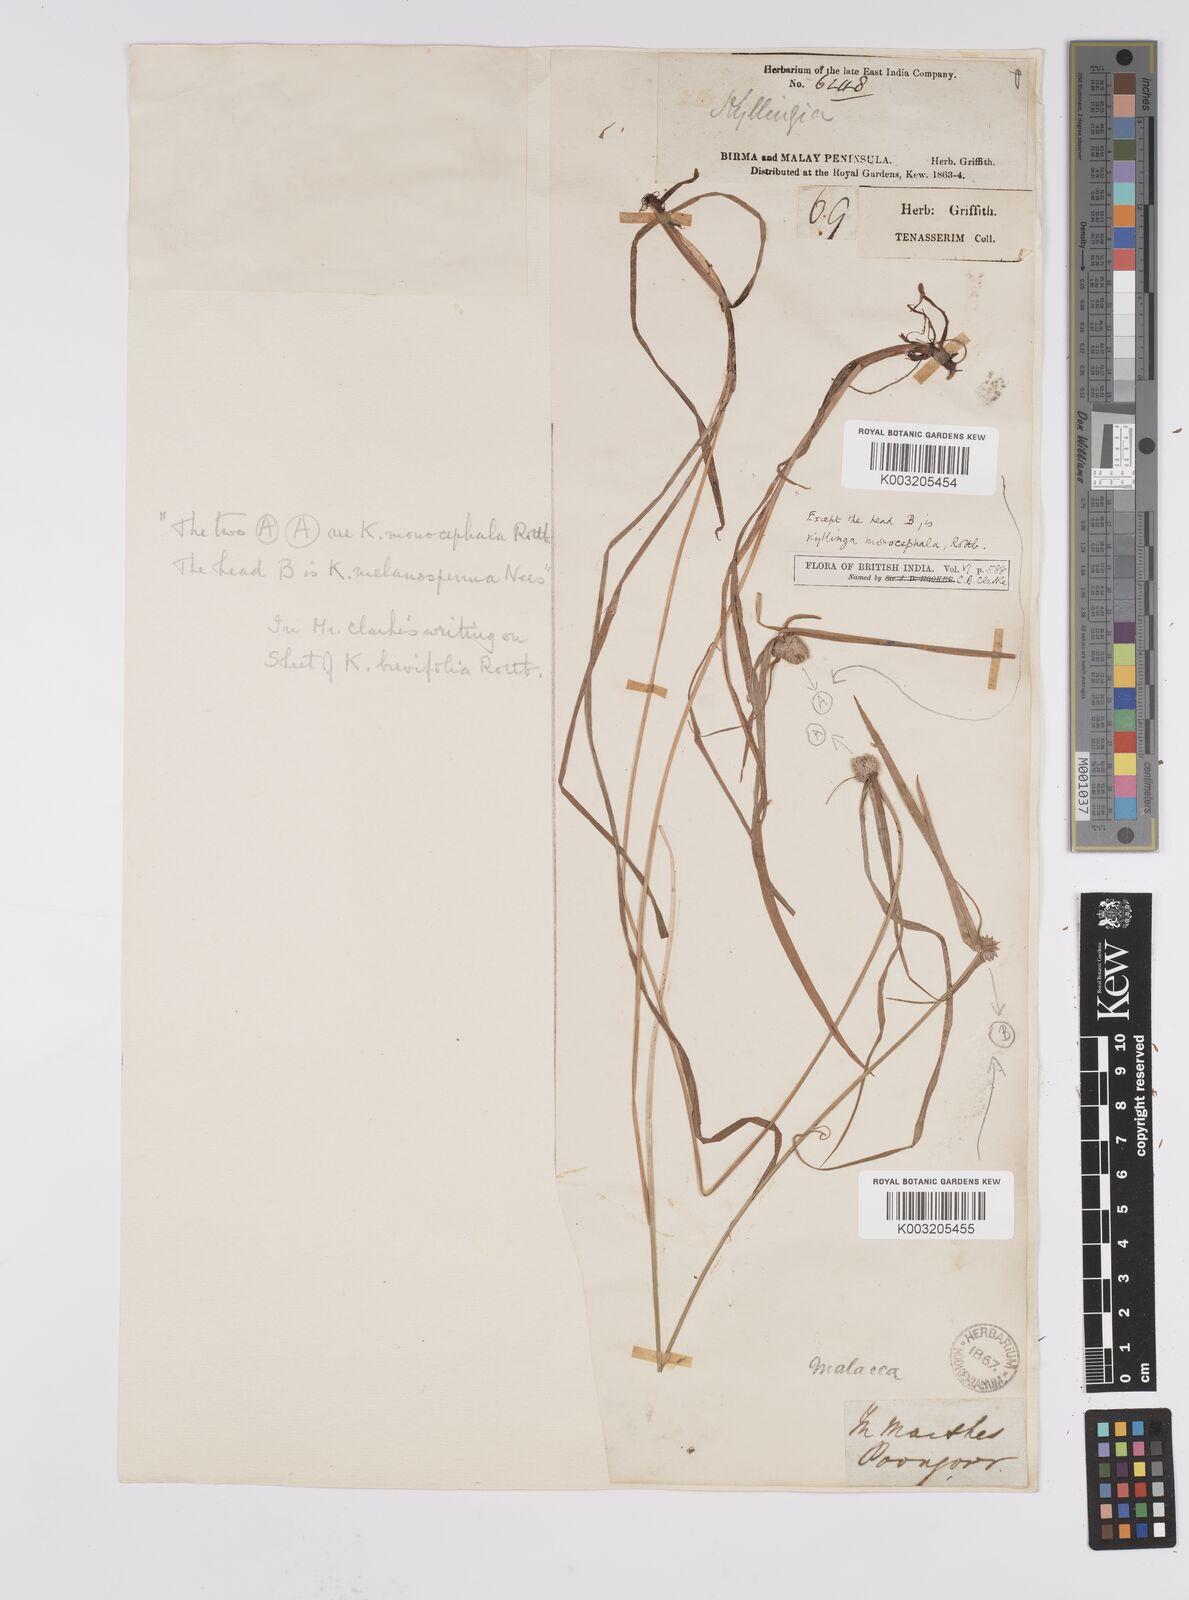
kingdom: Plantae
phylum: Tracheophyta
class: Liliopsida
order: Poales
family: Cyperaceae
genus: Cyperus
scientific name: Cyperus nemoralis
